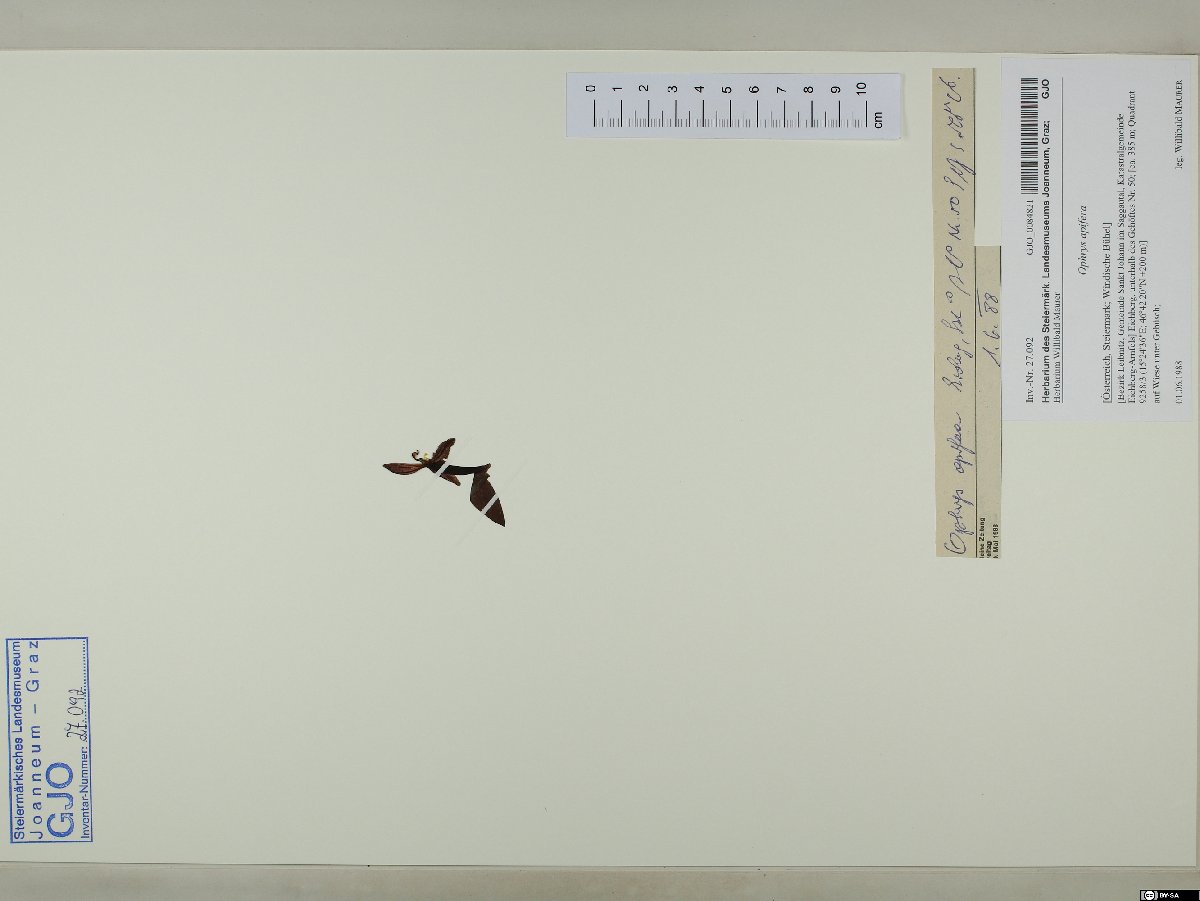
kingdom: Plantae
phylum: Tracheophyta
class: Liliopsida
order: Asparagales
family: Orchidaceae
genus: Ophrys
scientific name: Ophrys apifera
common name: Bee orchid
